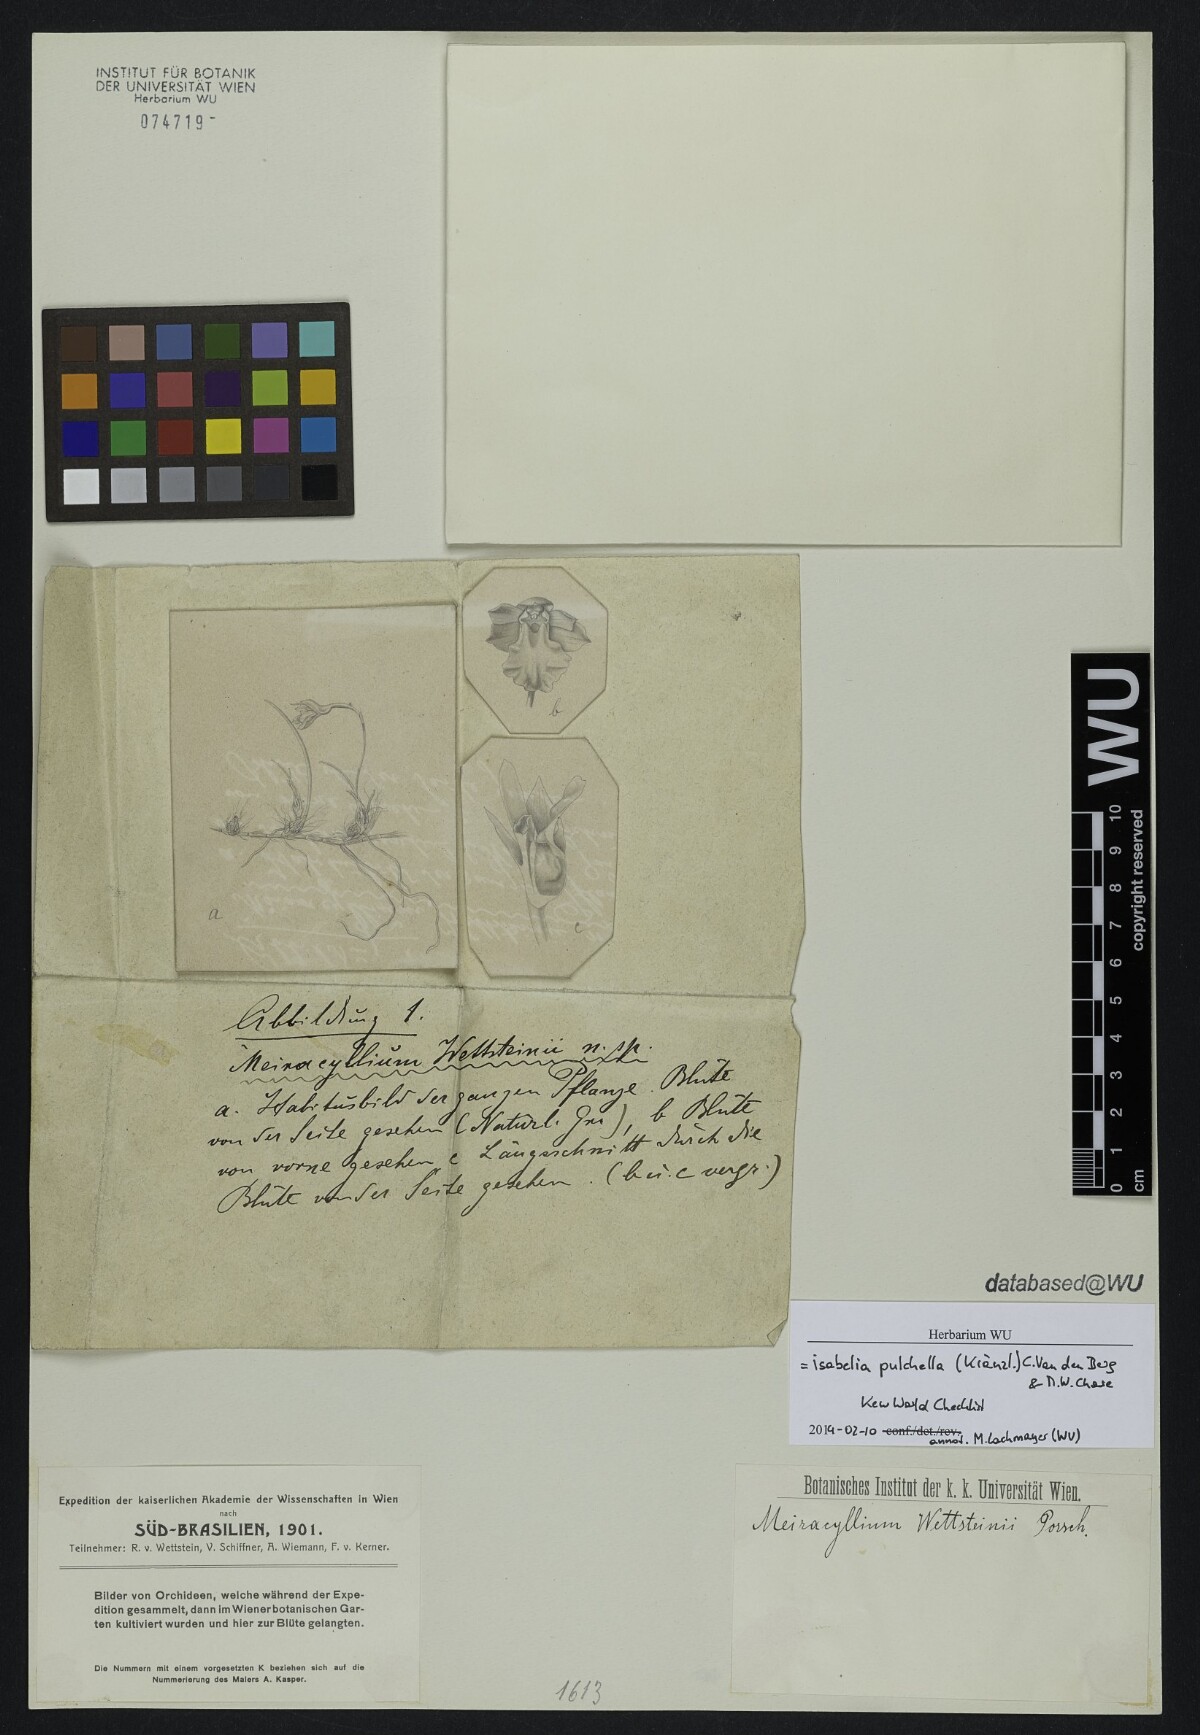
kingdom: Plantae
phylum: Tracheophyta
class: Liliopsida
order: Asparagales
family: Orchidaceae
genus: Isabelia
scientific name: Isabelia pulchella
